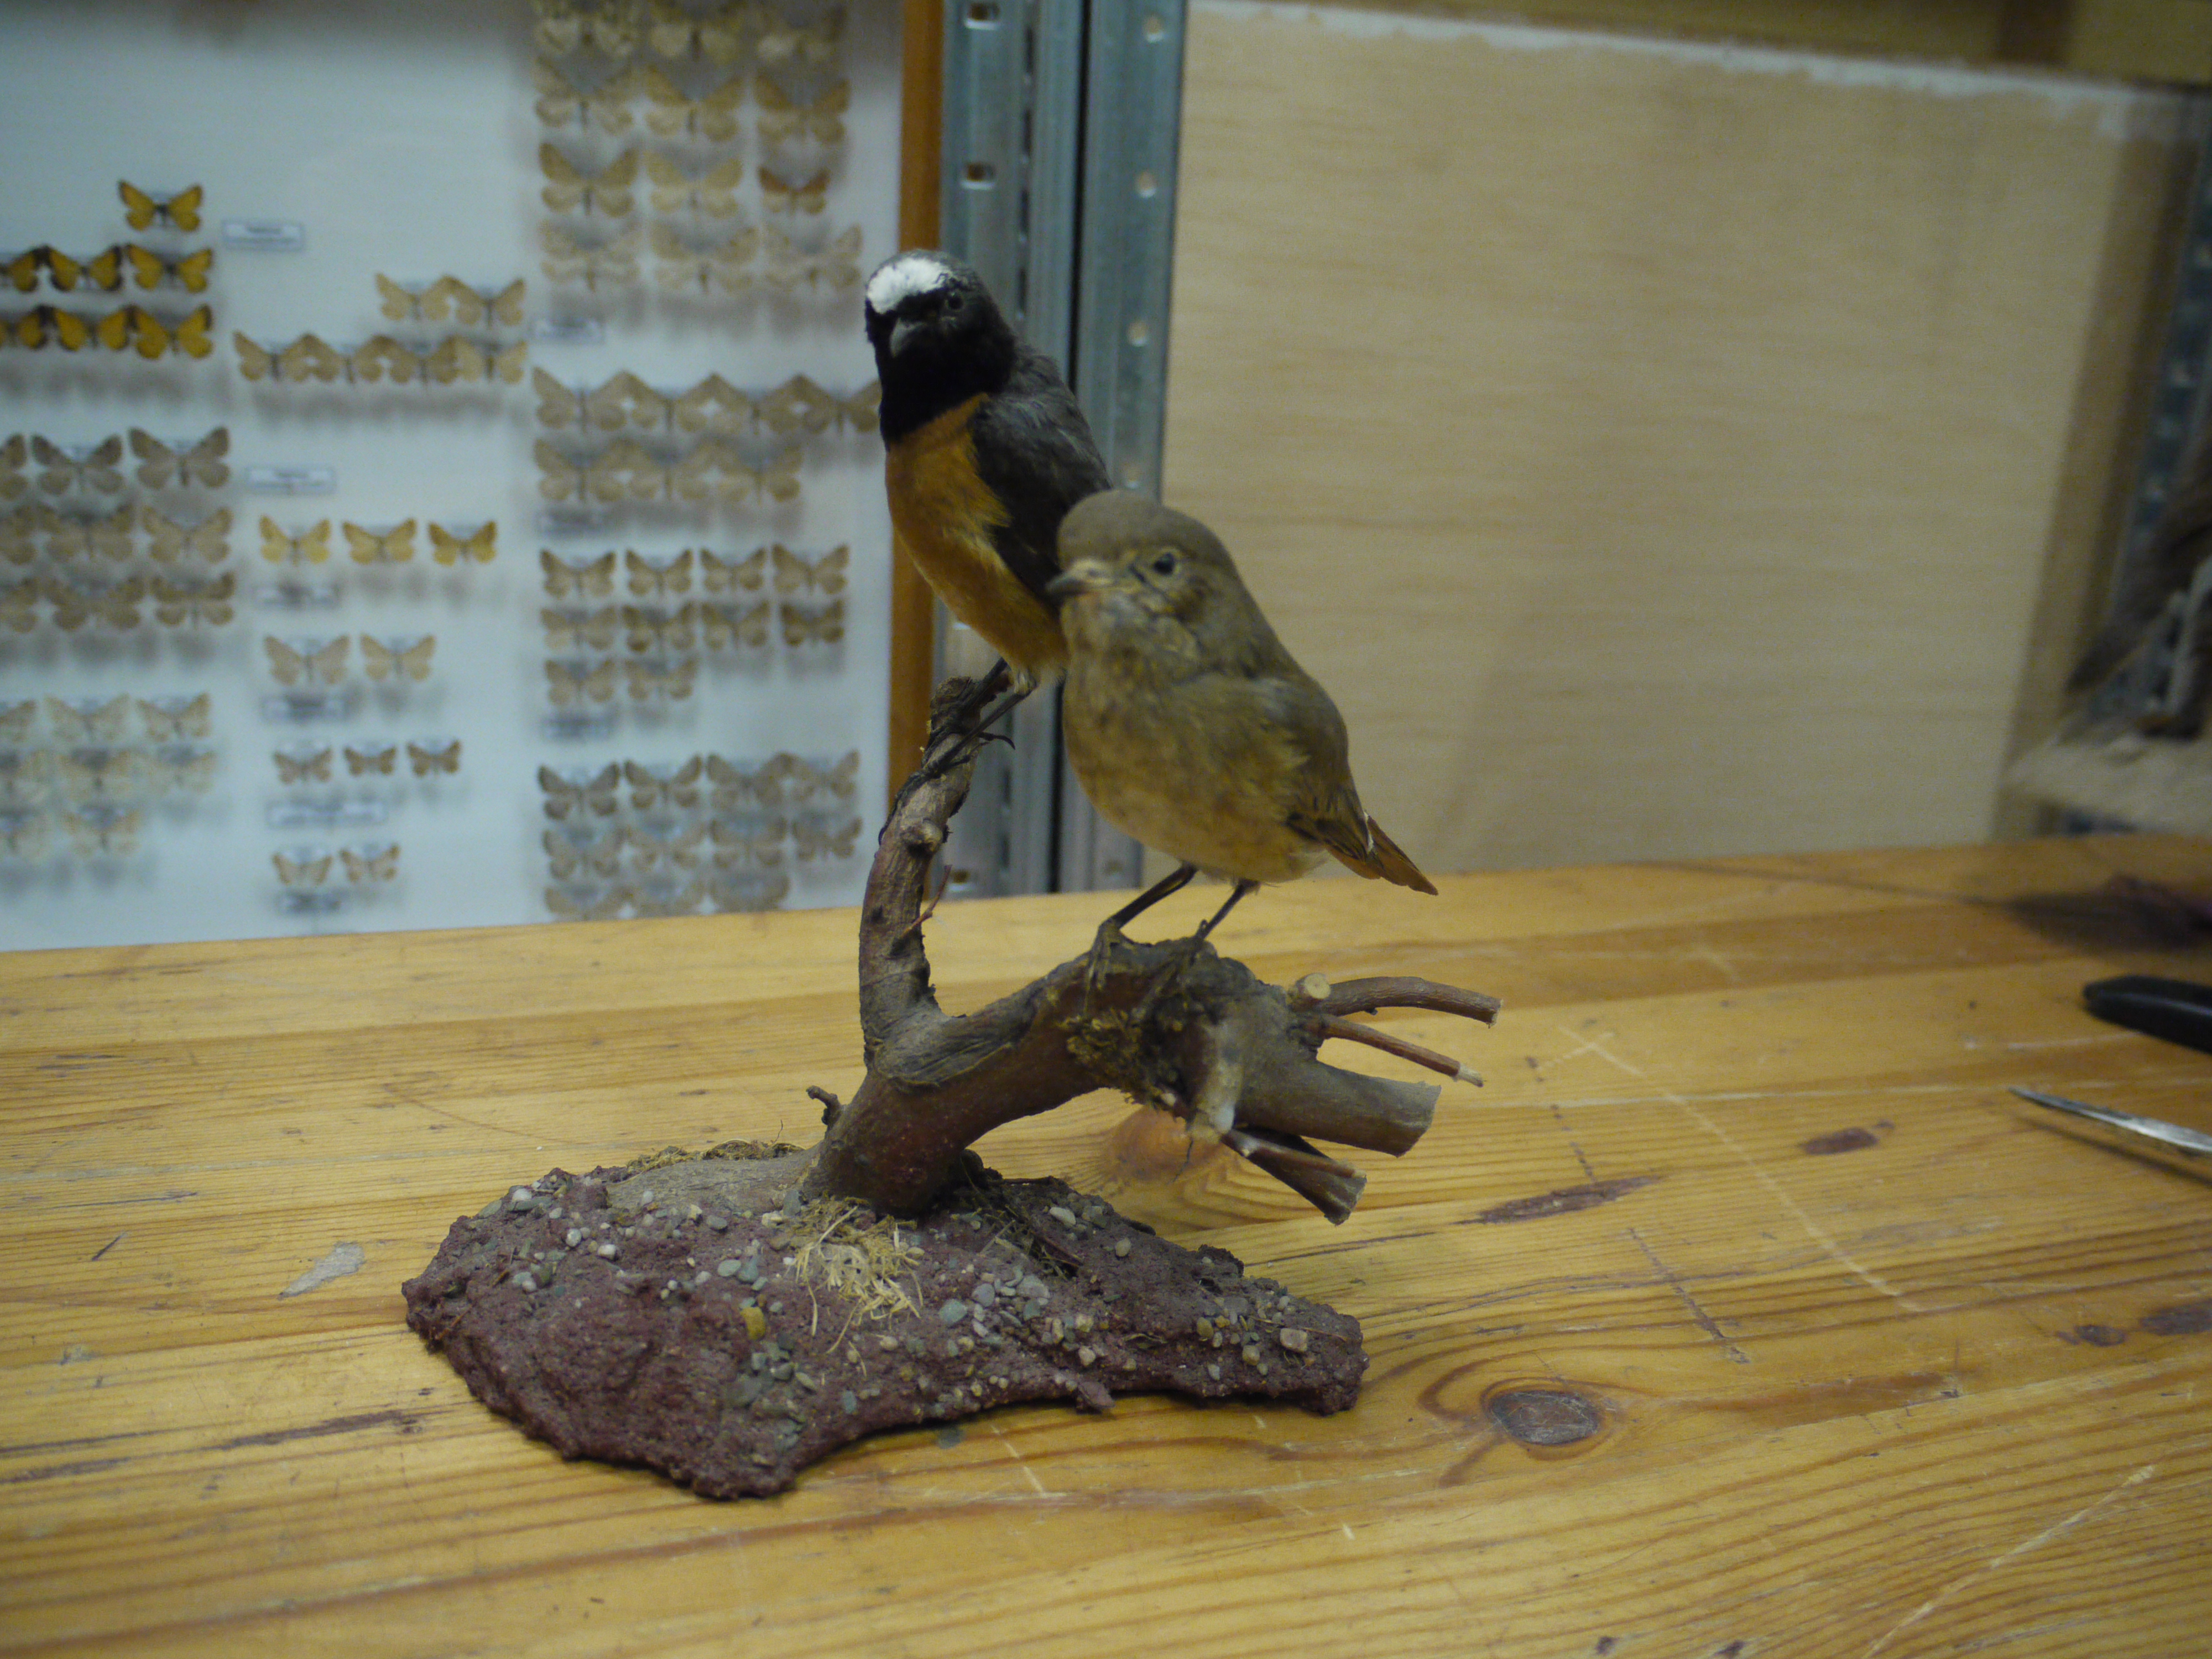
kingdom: Animalia
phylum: Chordata
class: Aves
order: Passeriformes
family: Muscicapidae
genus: Phoenicurus
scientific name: Phoenicurus phoenicurus
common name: Common redstart
